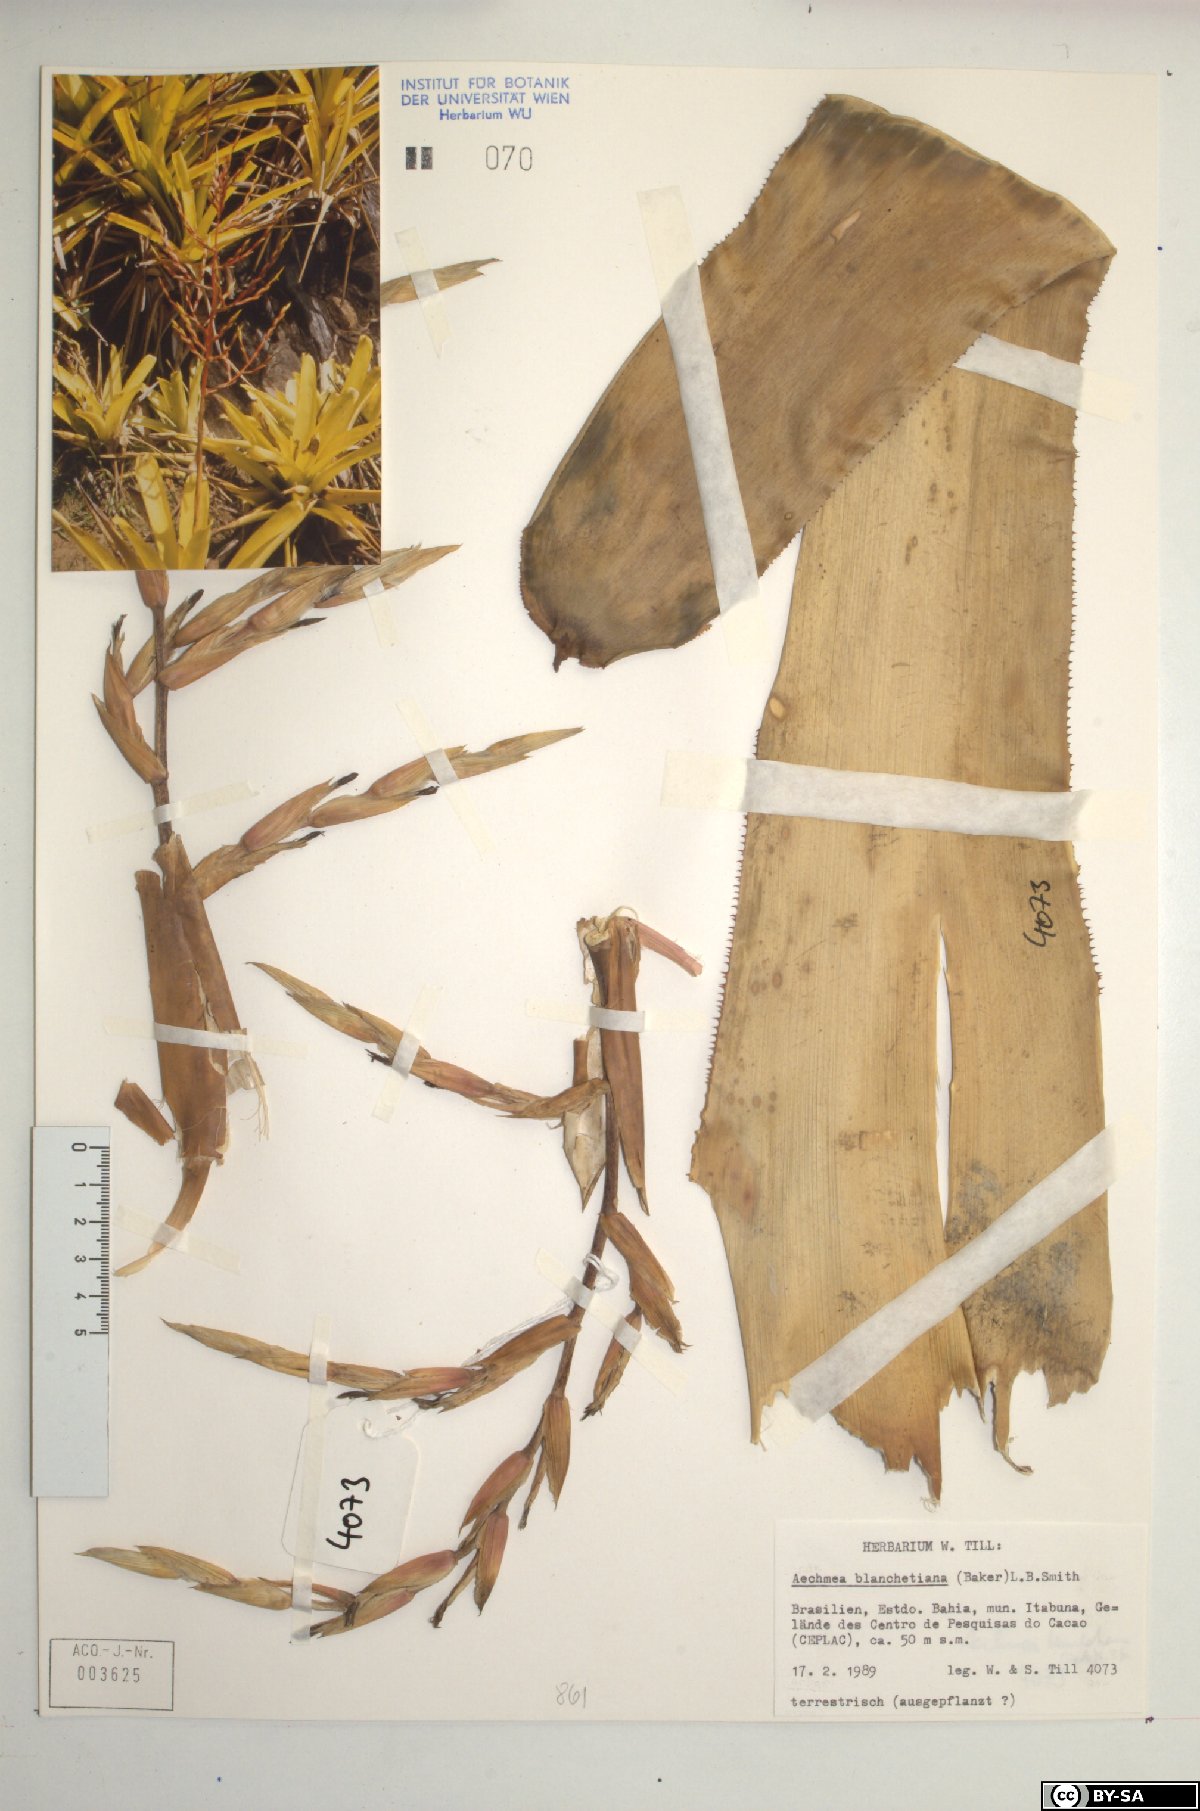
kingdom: Plantae
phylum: Tracheophyta
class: Liliopsida
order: Poales
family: Bromeliaceae
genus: Aechmea
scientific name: Aechmea blanchetiana
